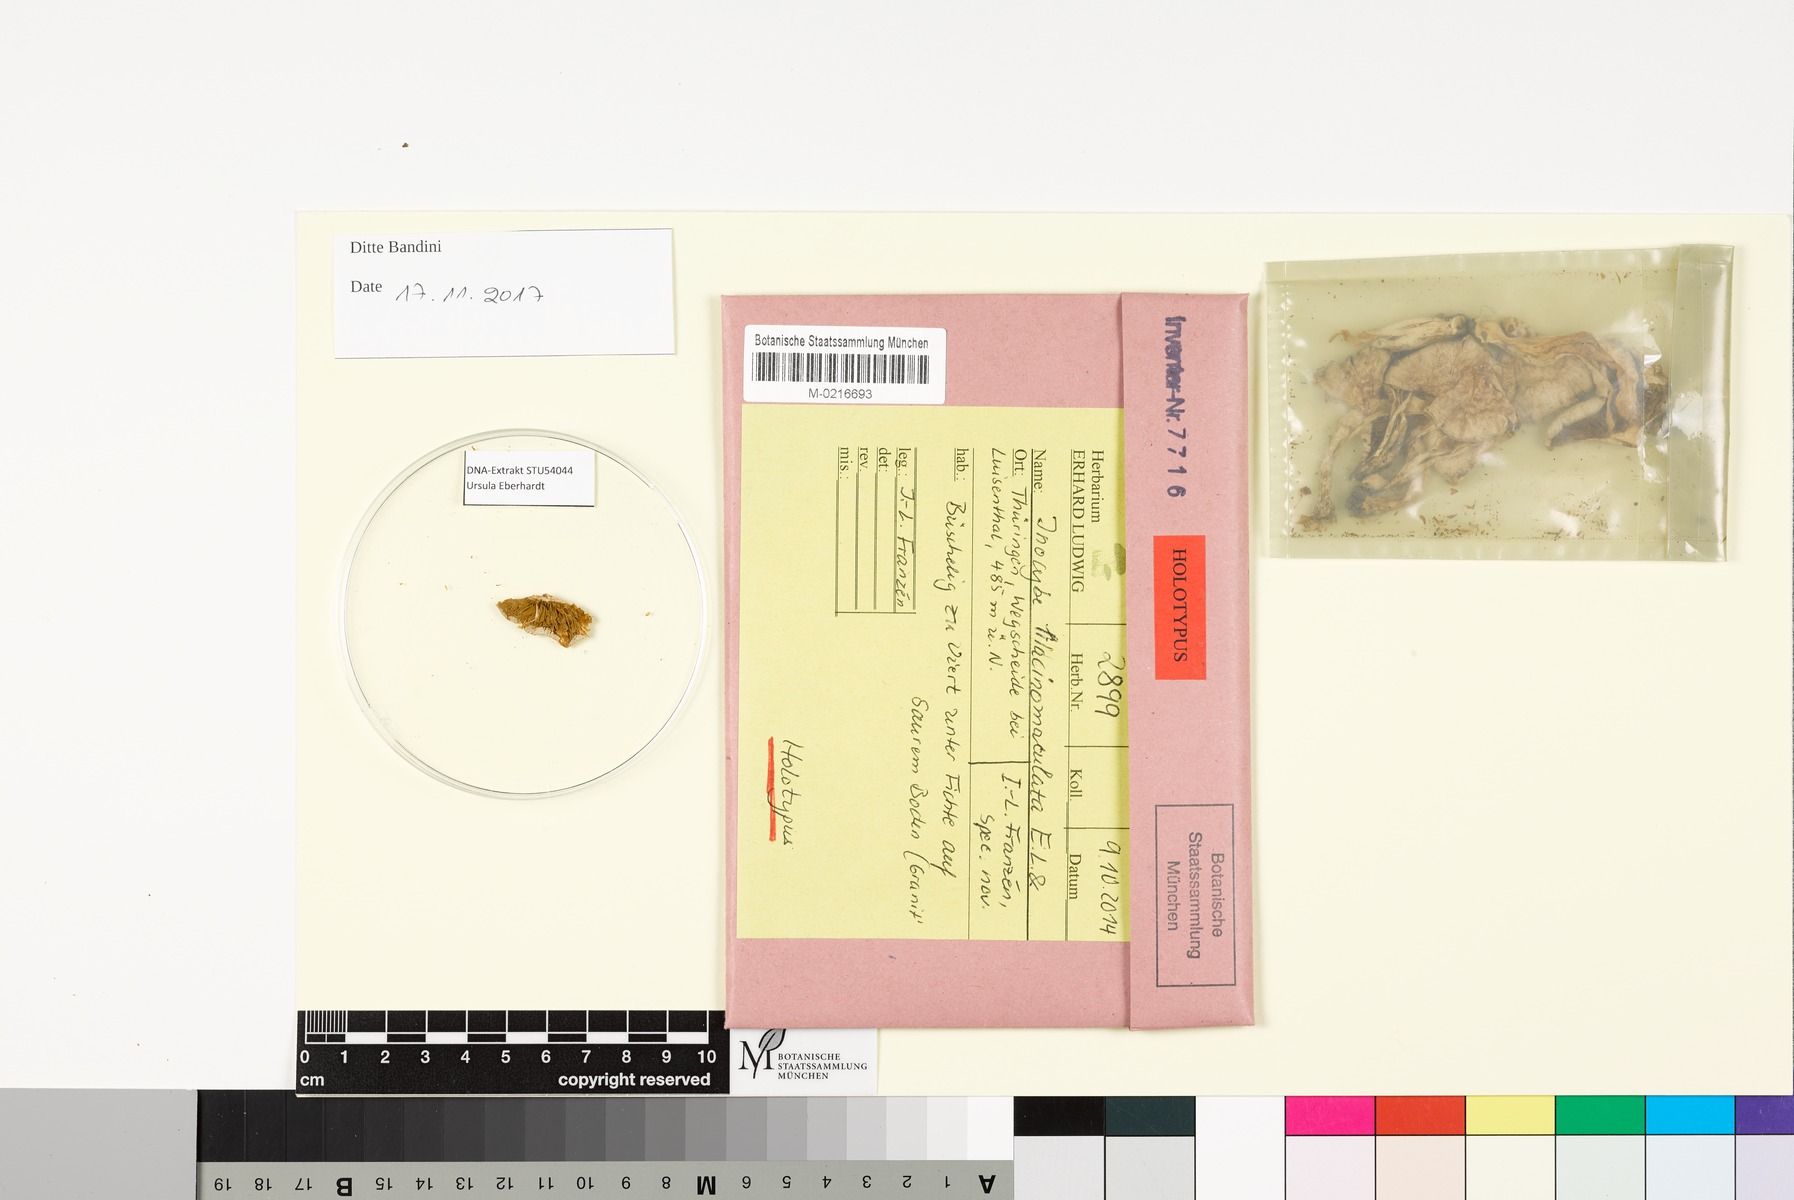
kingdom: Fungi
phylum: Basidiomycota
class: Agaricomycetes
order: Agaricales
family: Inocybaceae
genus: Inocybe
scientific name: Inocybe lilacinomaculata
